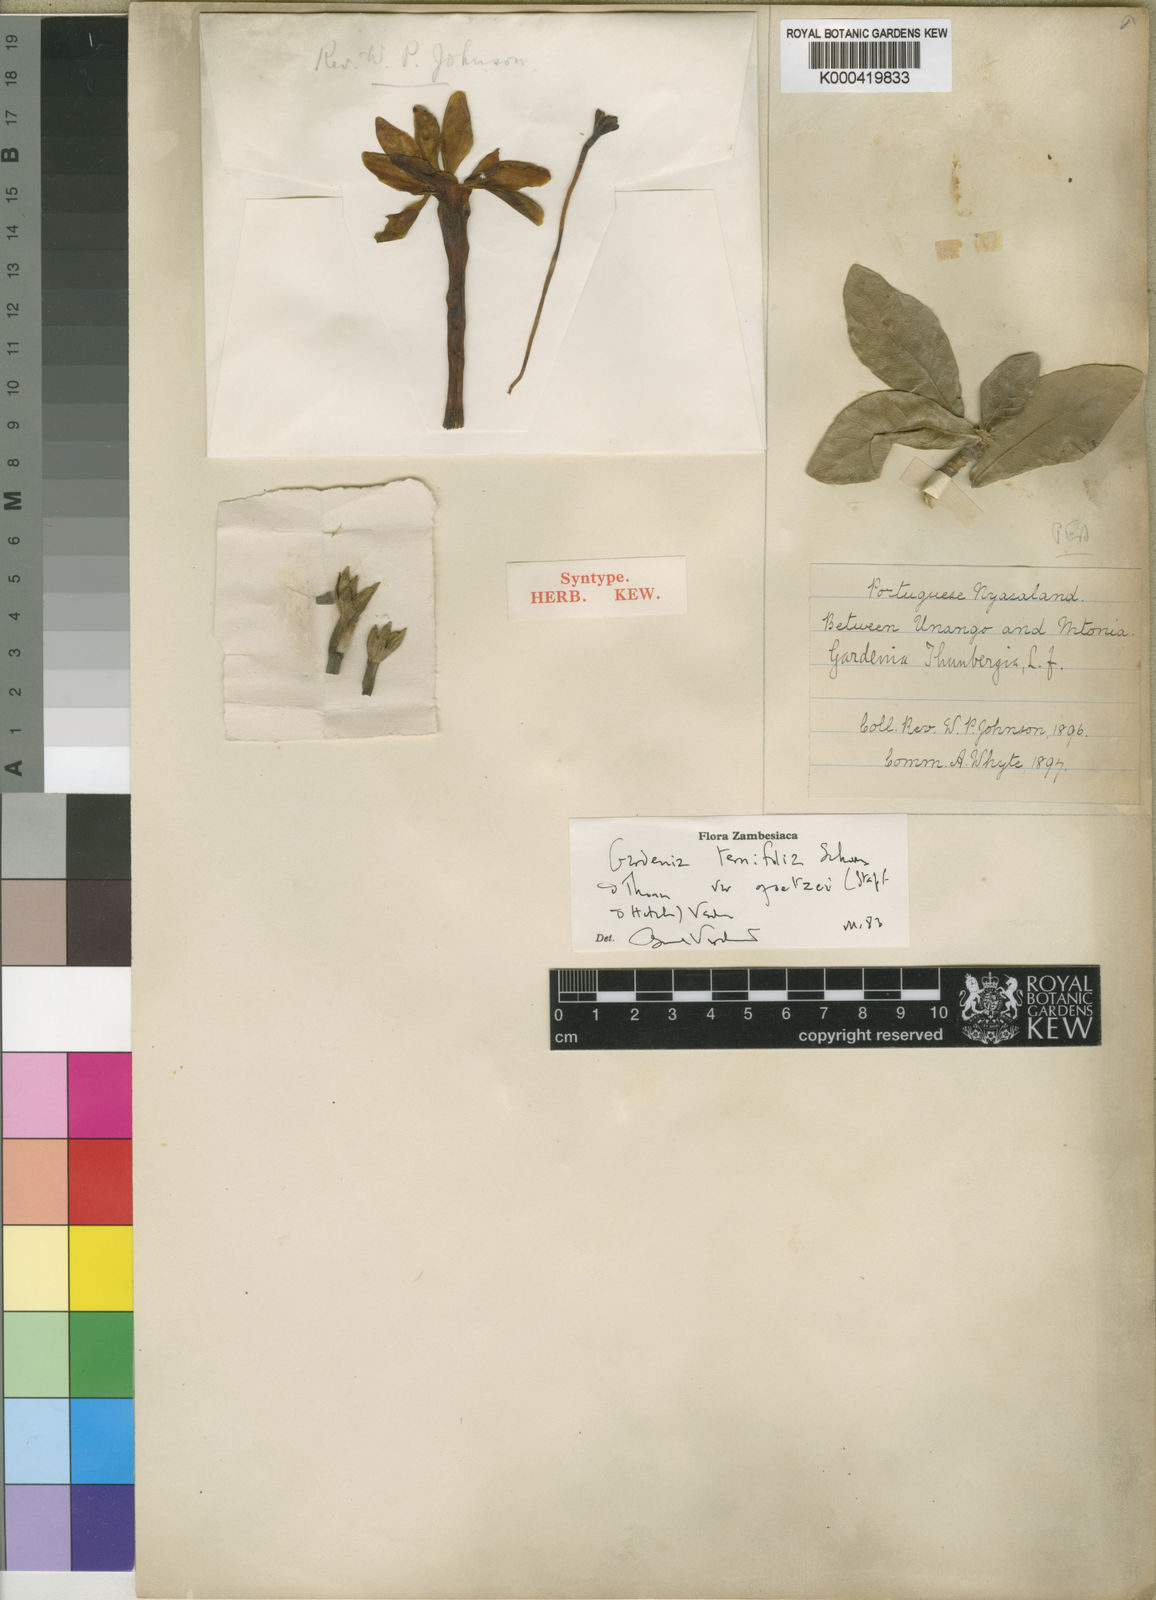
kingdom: Plantae
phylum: Tracheophyta
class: Magnoliopsida
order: Gentianales
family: Rubiaceae
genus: Gardenia
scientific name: Gardenia ternifolia
